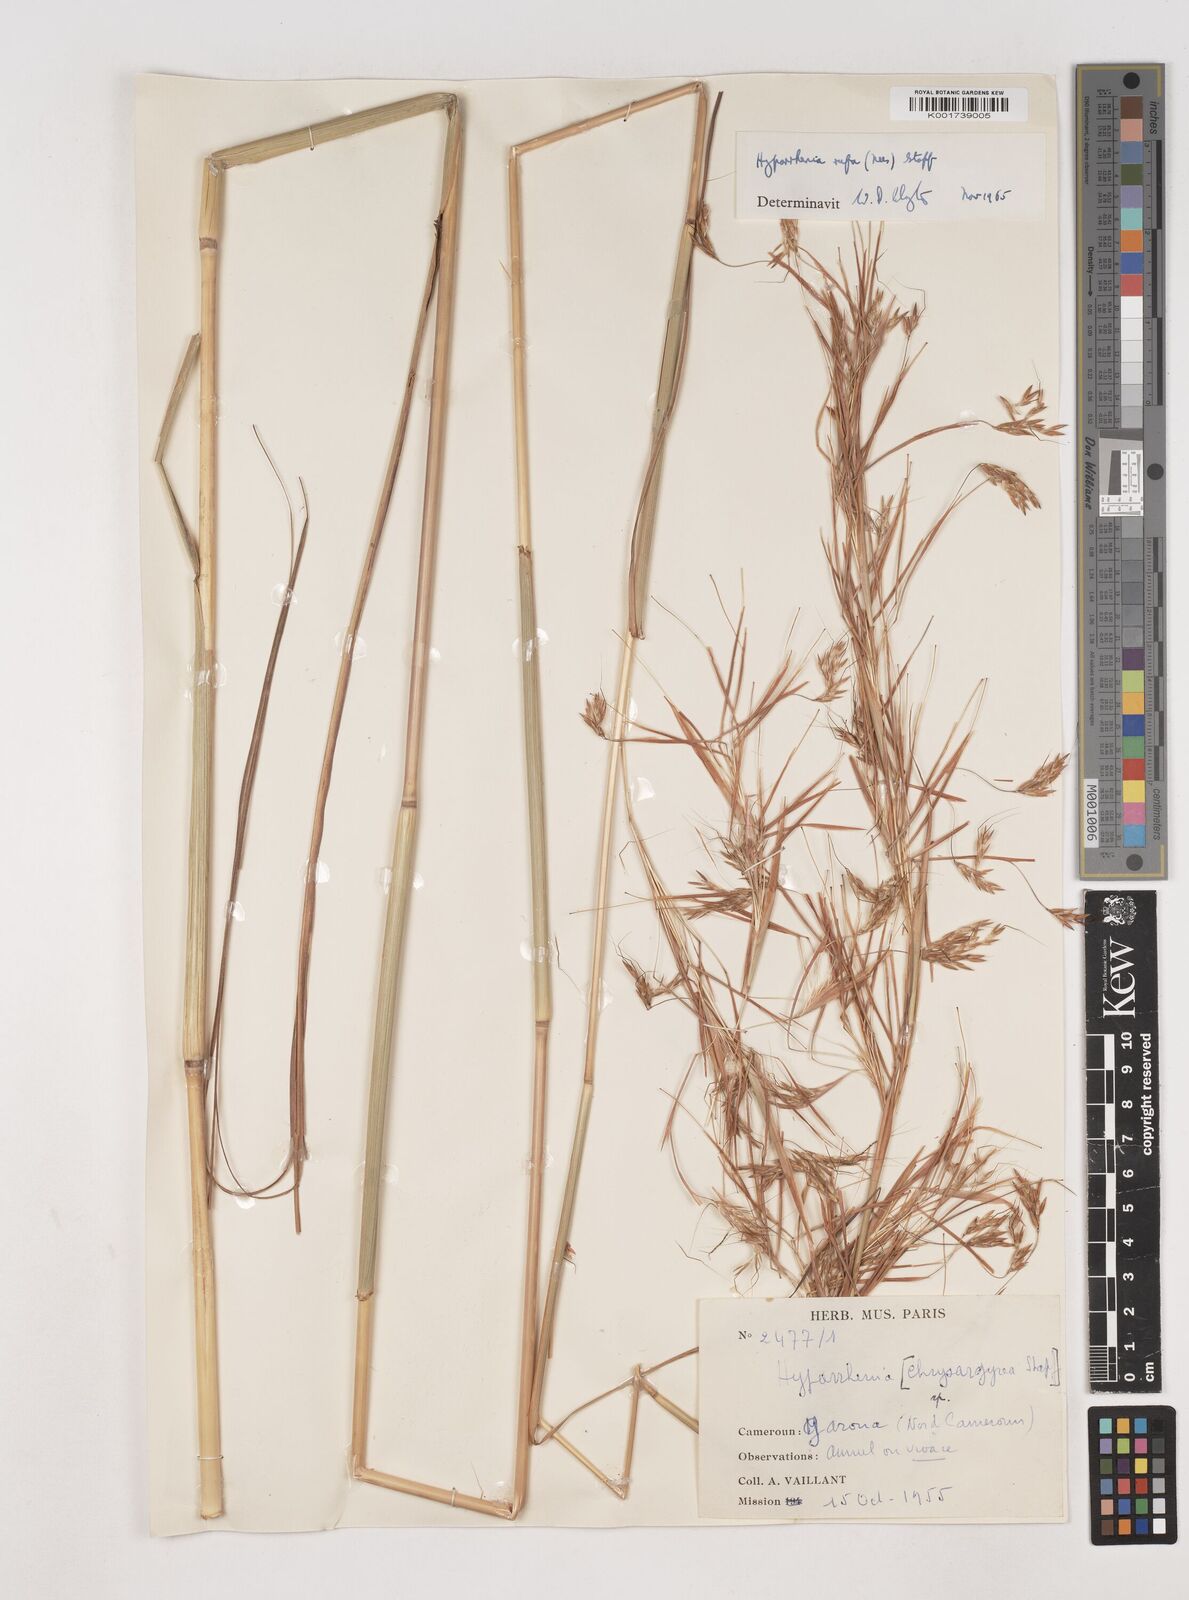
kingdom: Plantae
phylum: Tracheophyta
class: Liliopsida
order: Poales
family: Poaceae
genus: Hyparrhenia
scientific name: Hyparrhenia rufa
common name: Jaraguagrass
